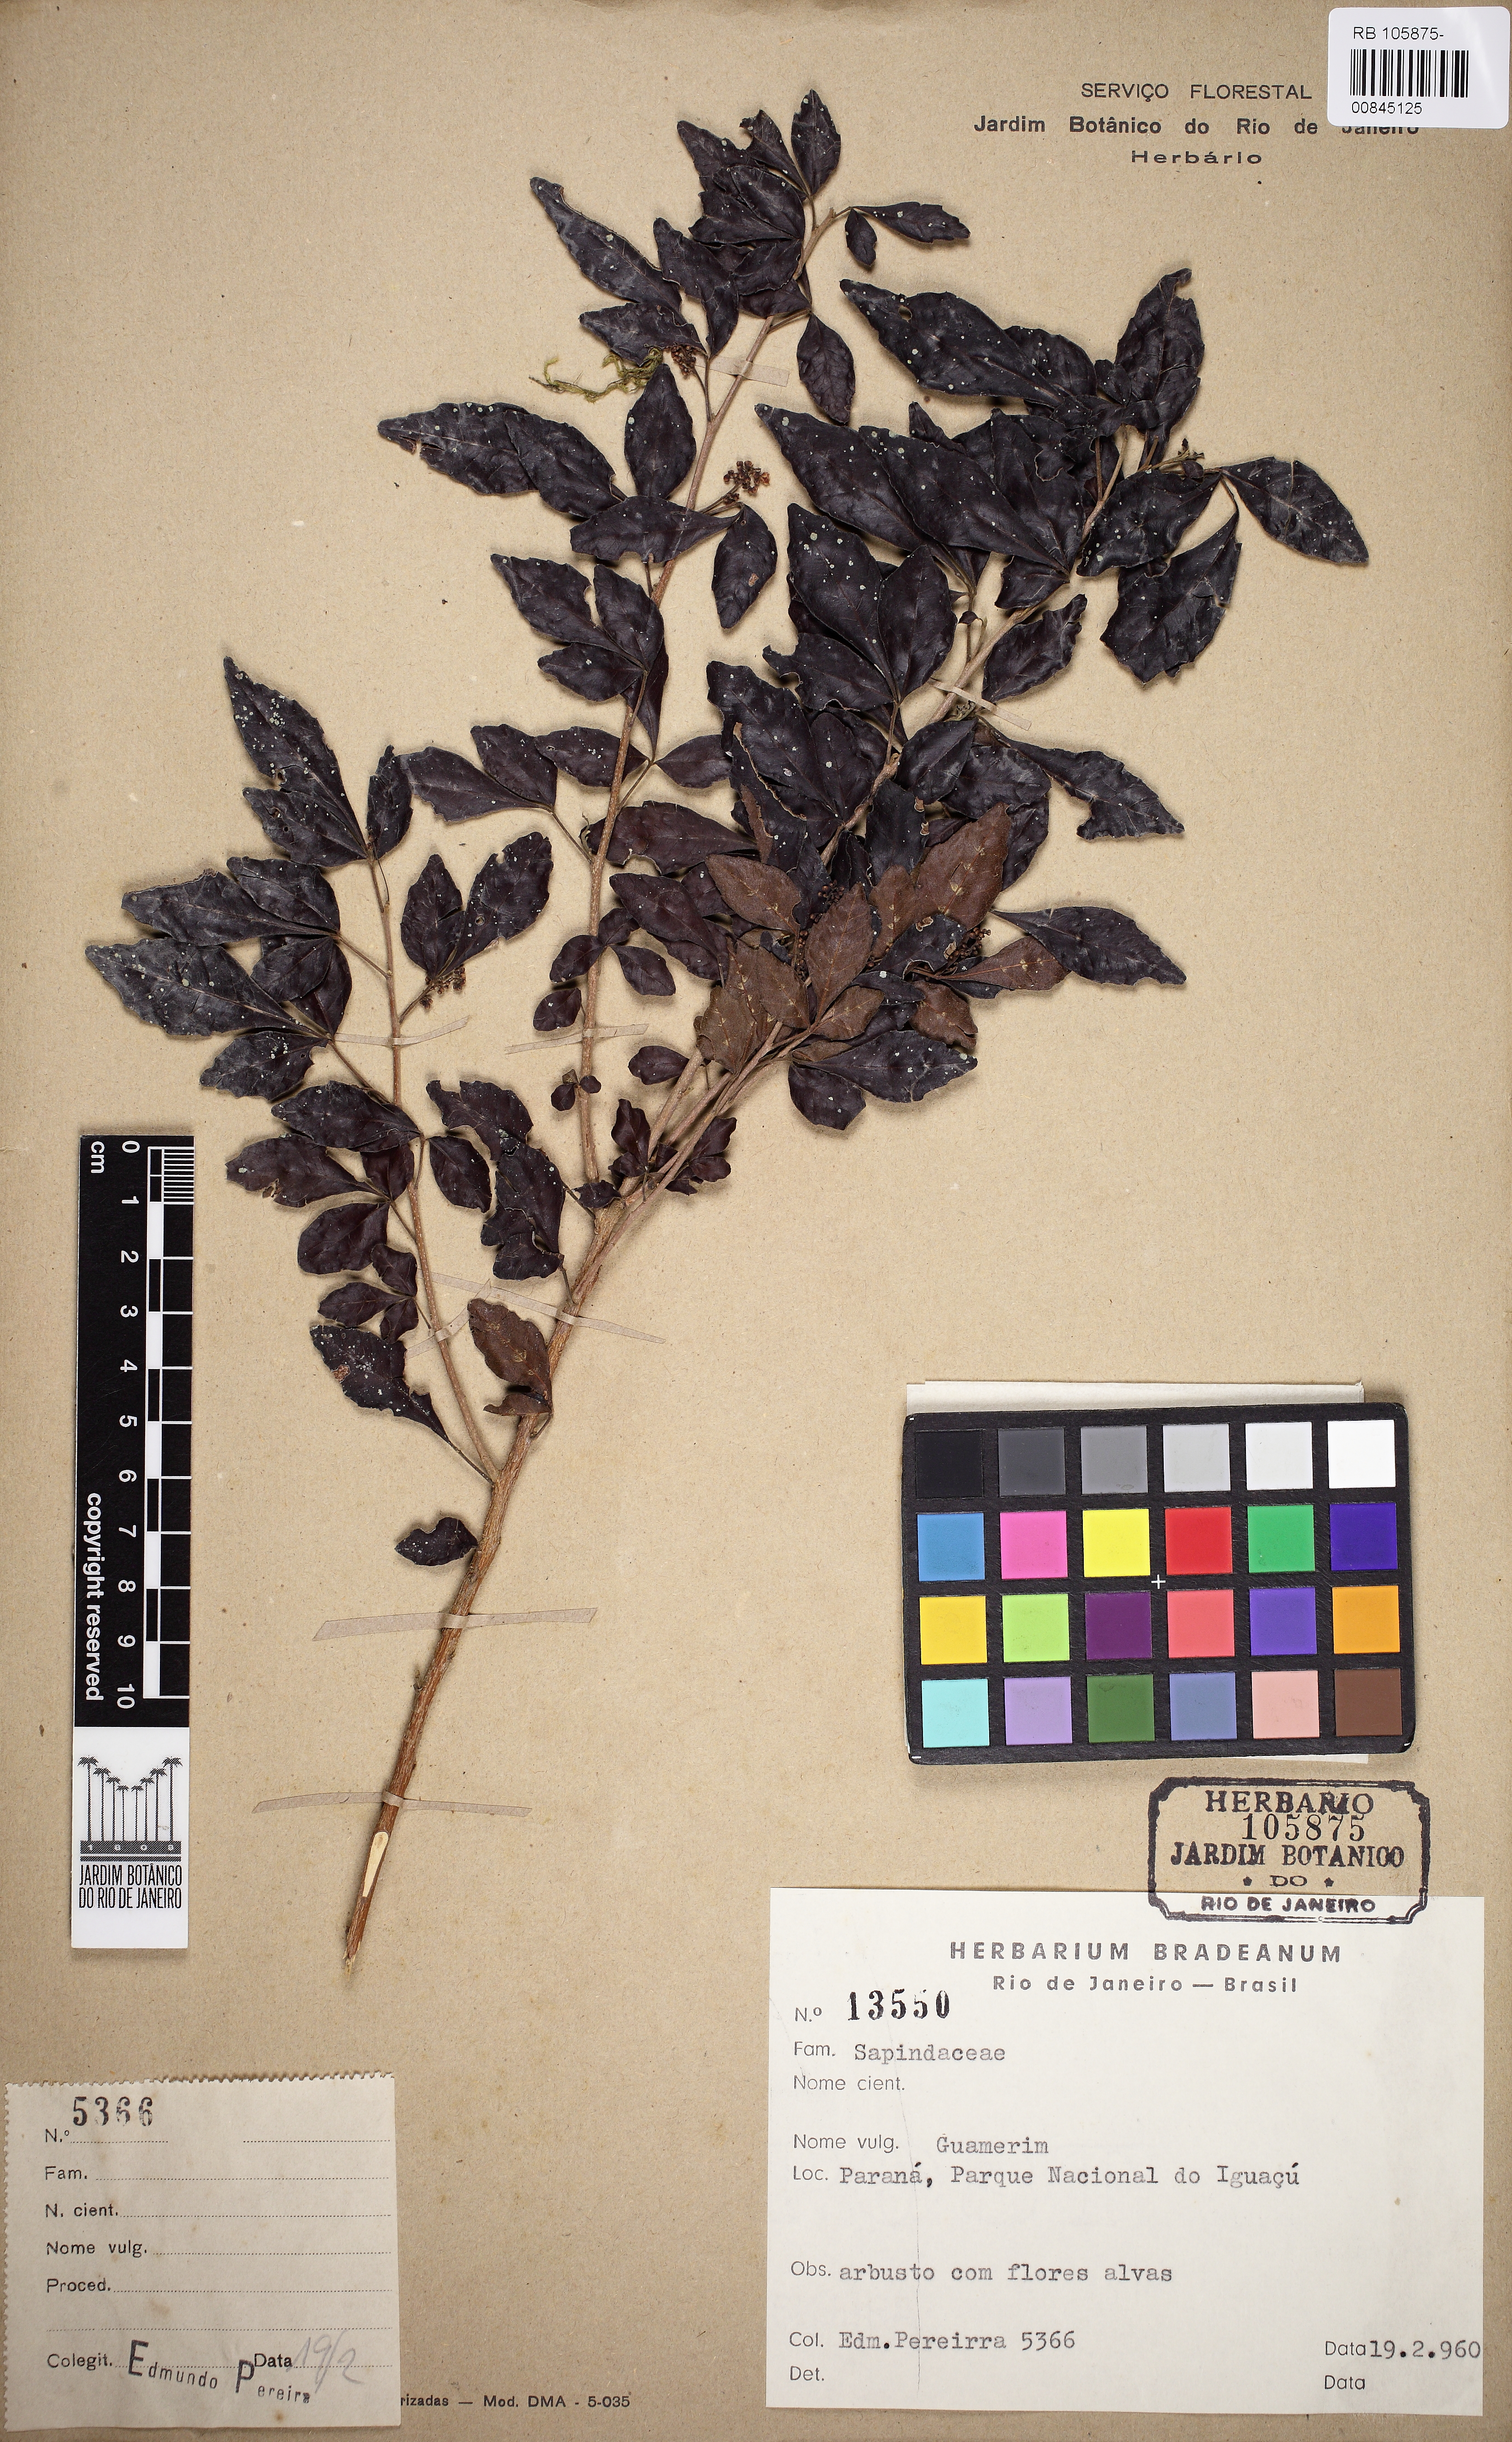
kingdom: Plantae
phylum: Tracheophyta
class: Magnoliopsida
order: Sapindales
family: Sapindaceae
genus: Allophylus
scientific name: Allophylus guaraniticus
